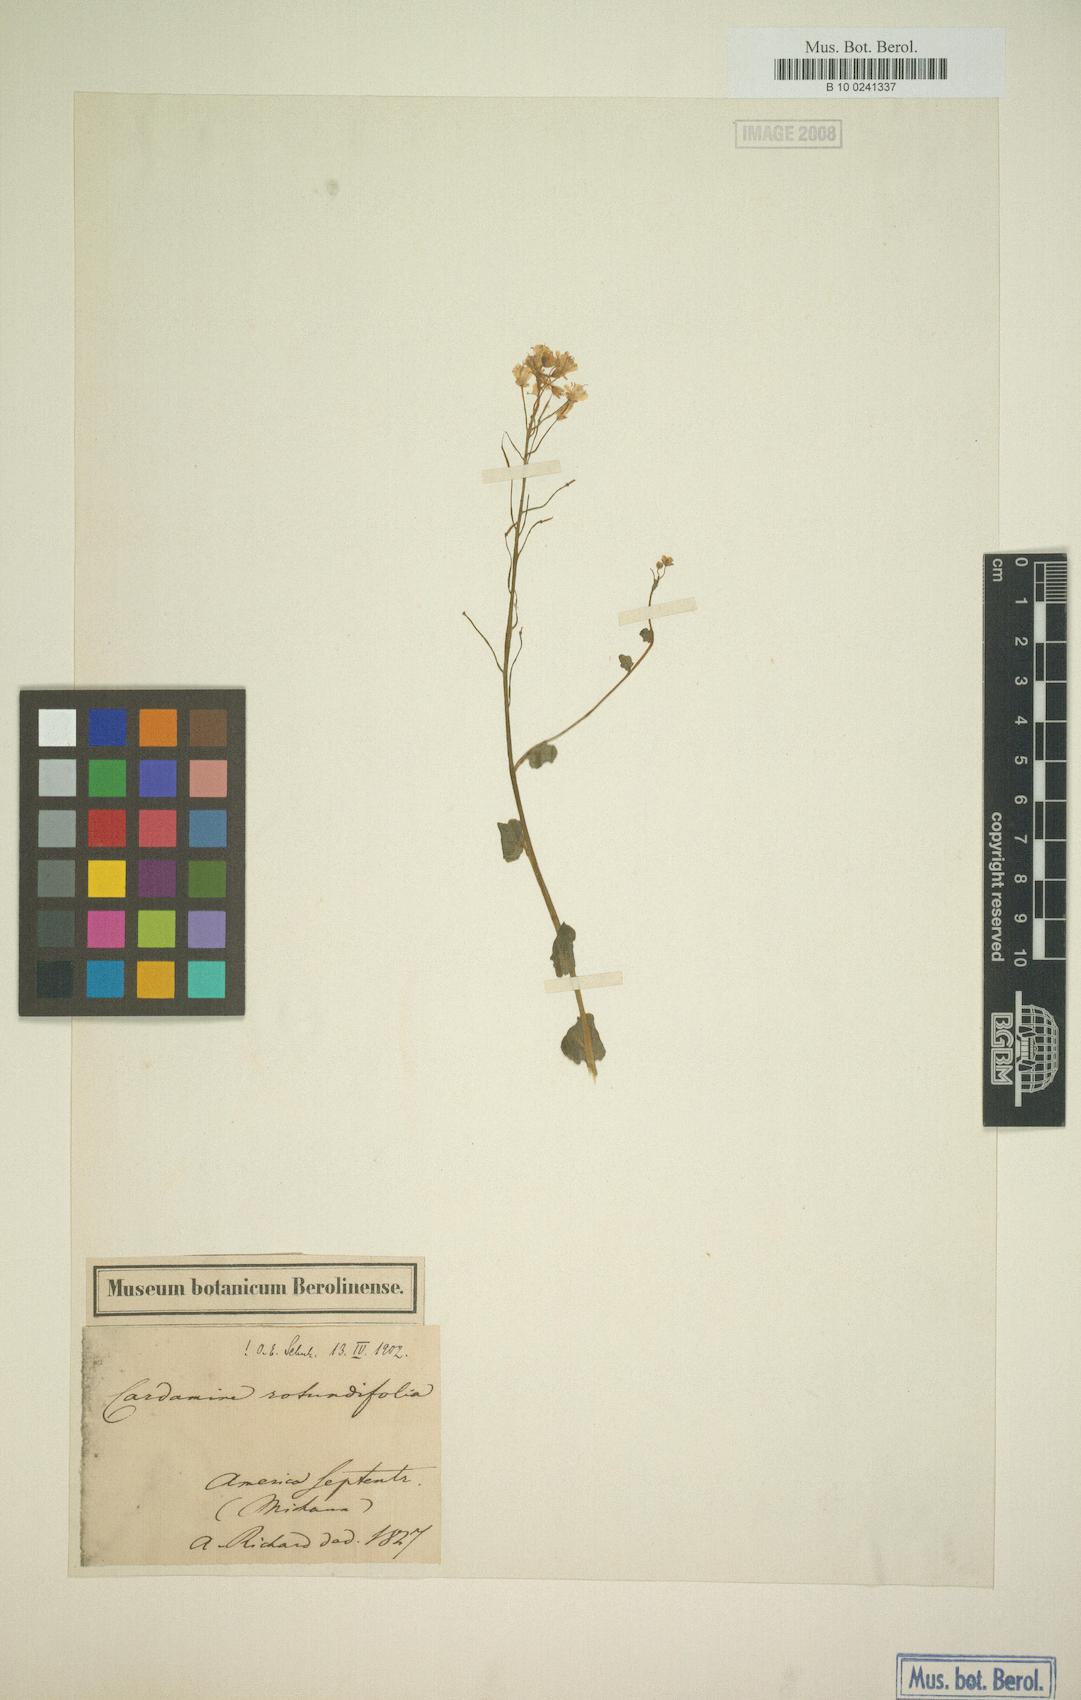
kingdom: Plantae
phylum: Tracheophyta
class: Magnoliopsida
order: Brassicales
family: Brassicaceae
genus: Cardamine
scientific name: Cardamine rotundifolia
